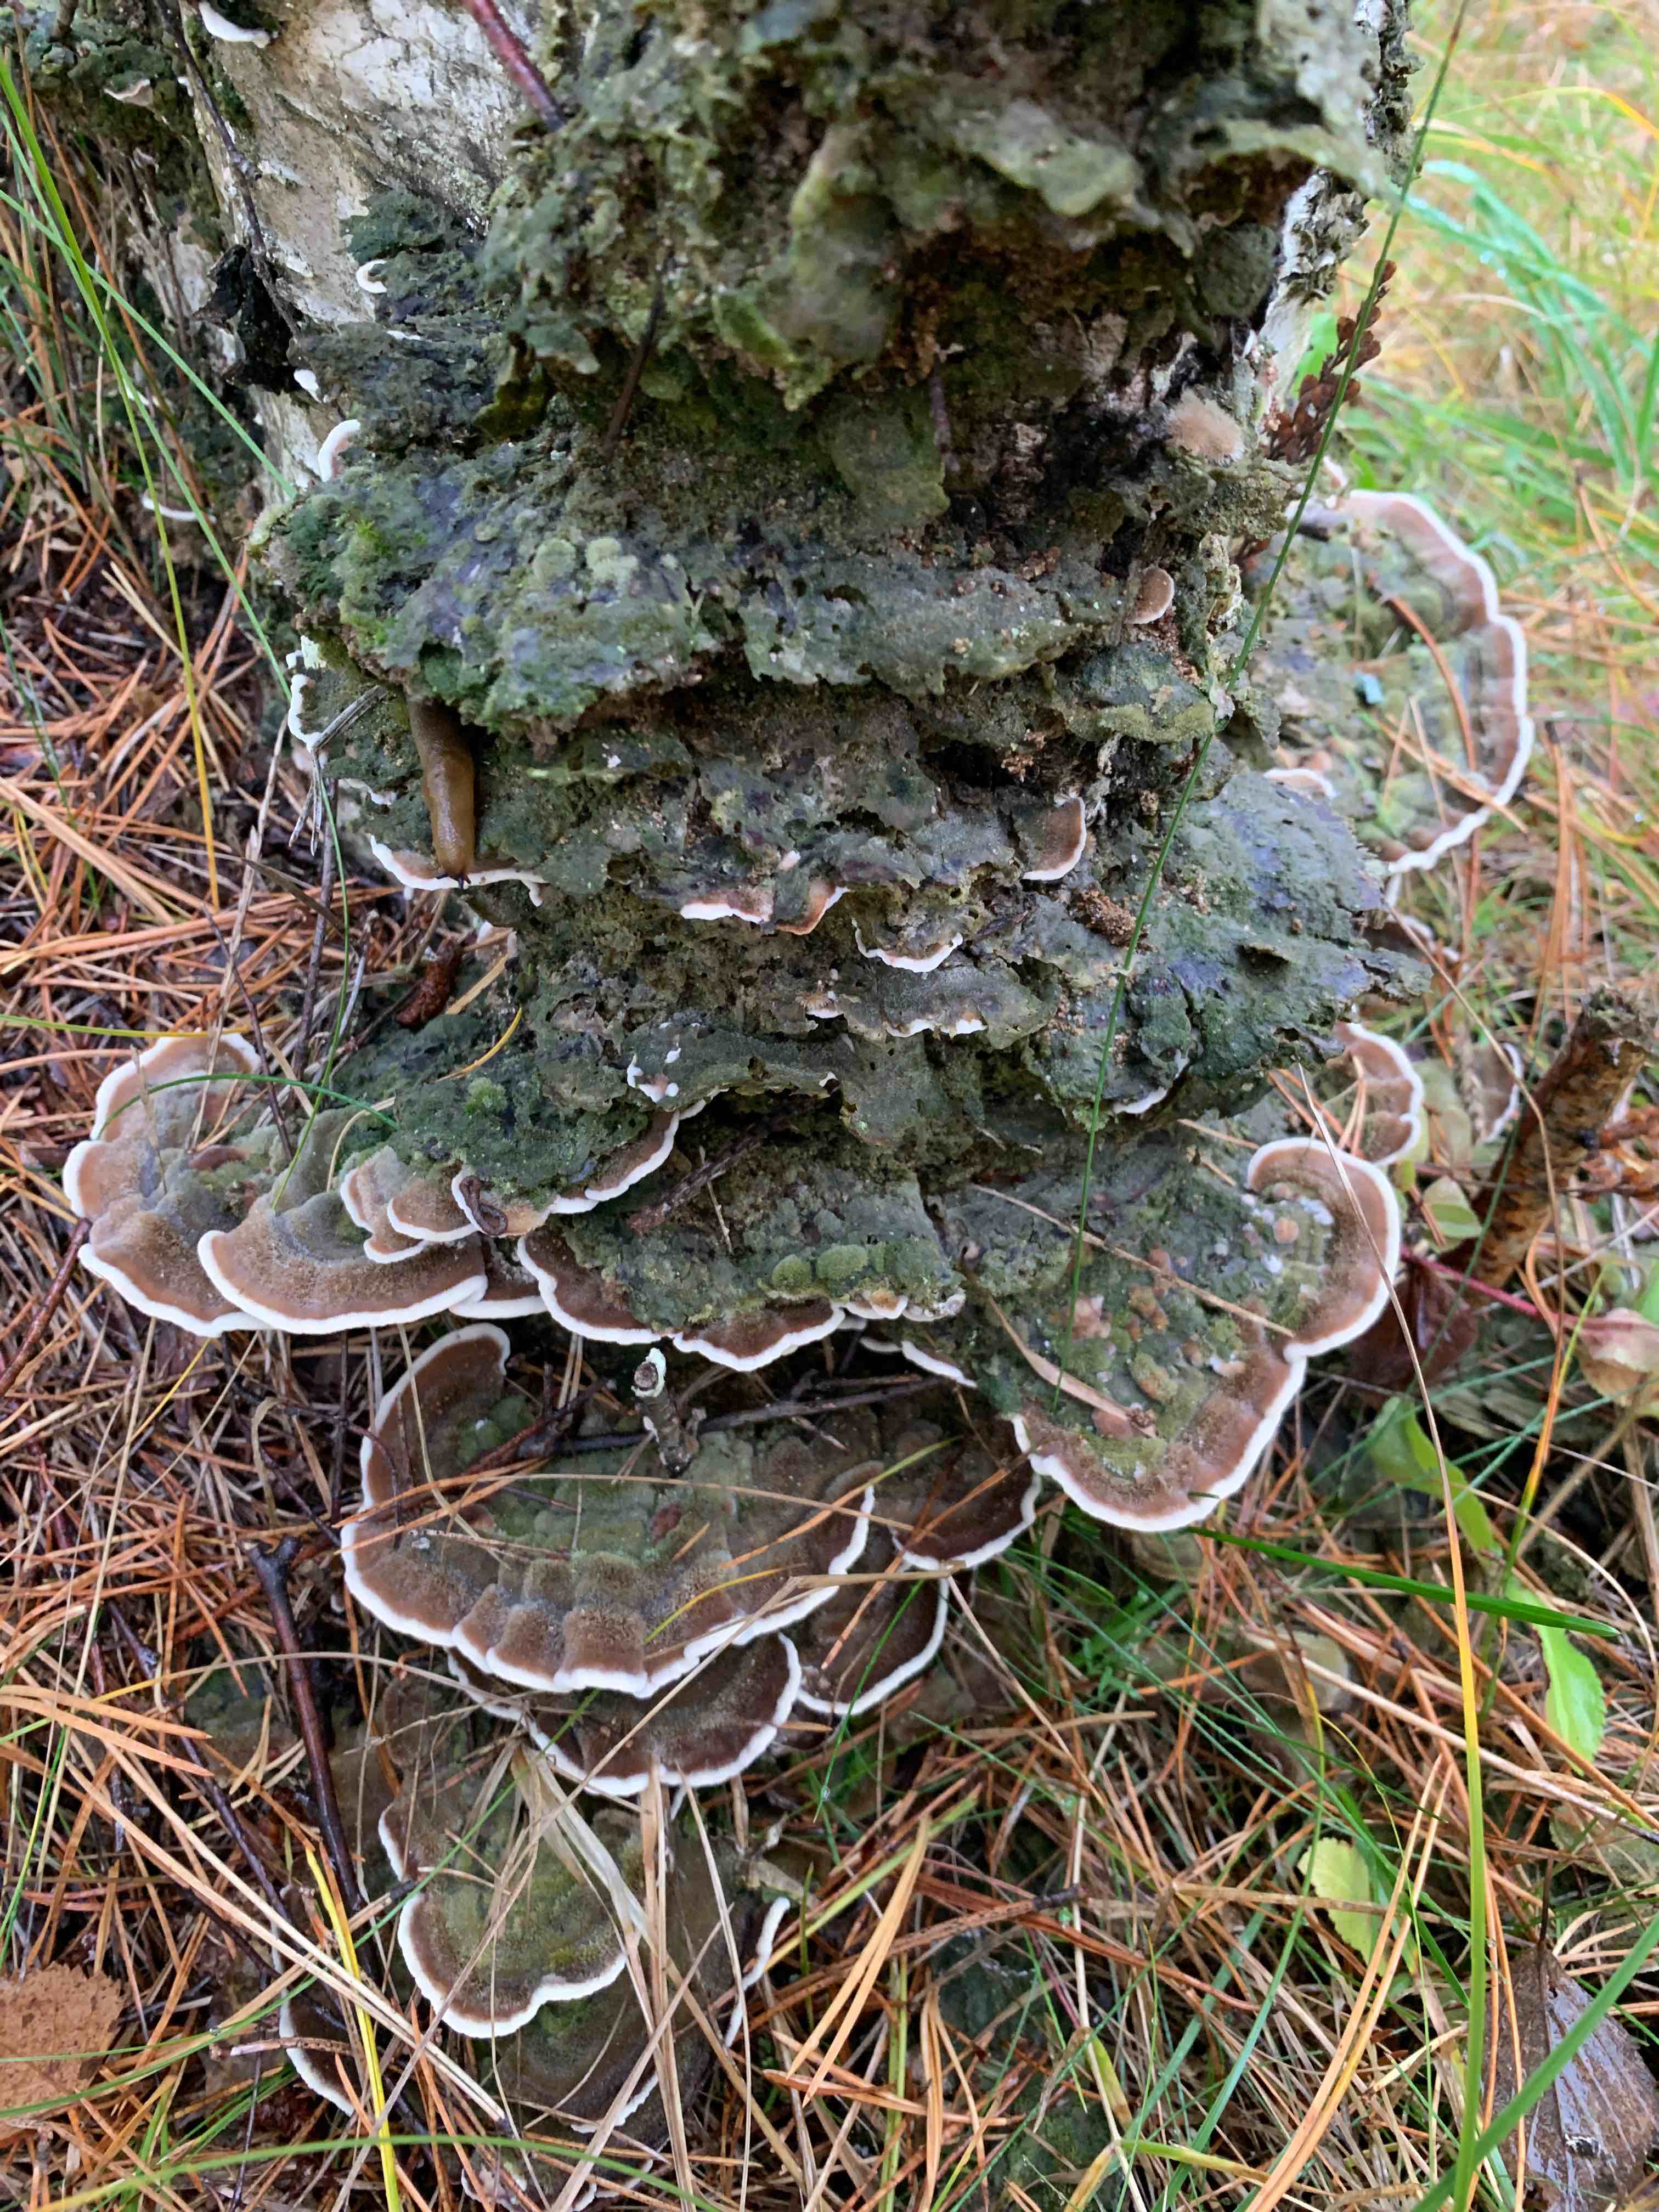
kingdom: Fungi
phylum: Basidiomycota
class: Agaricomycetes
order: Polyporales
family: Cerrenaceae
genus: Cerrena
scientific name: Cerrena unicolor
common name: ensfarvet læderporesvamp
